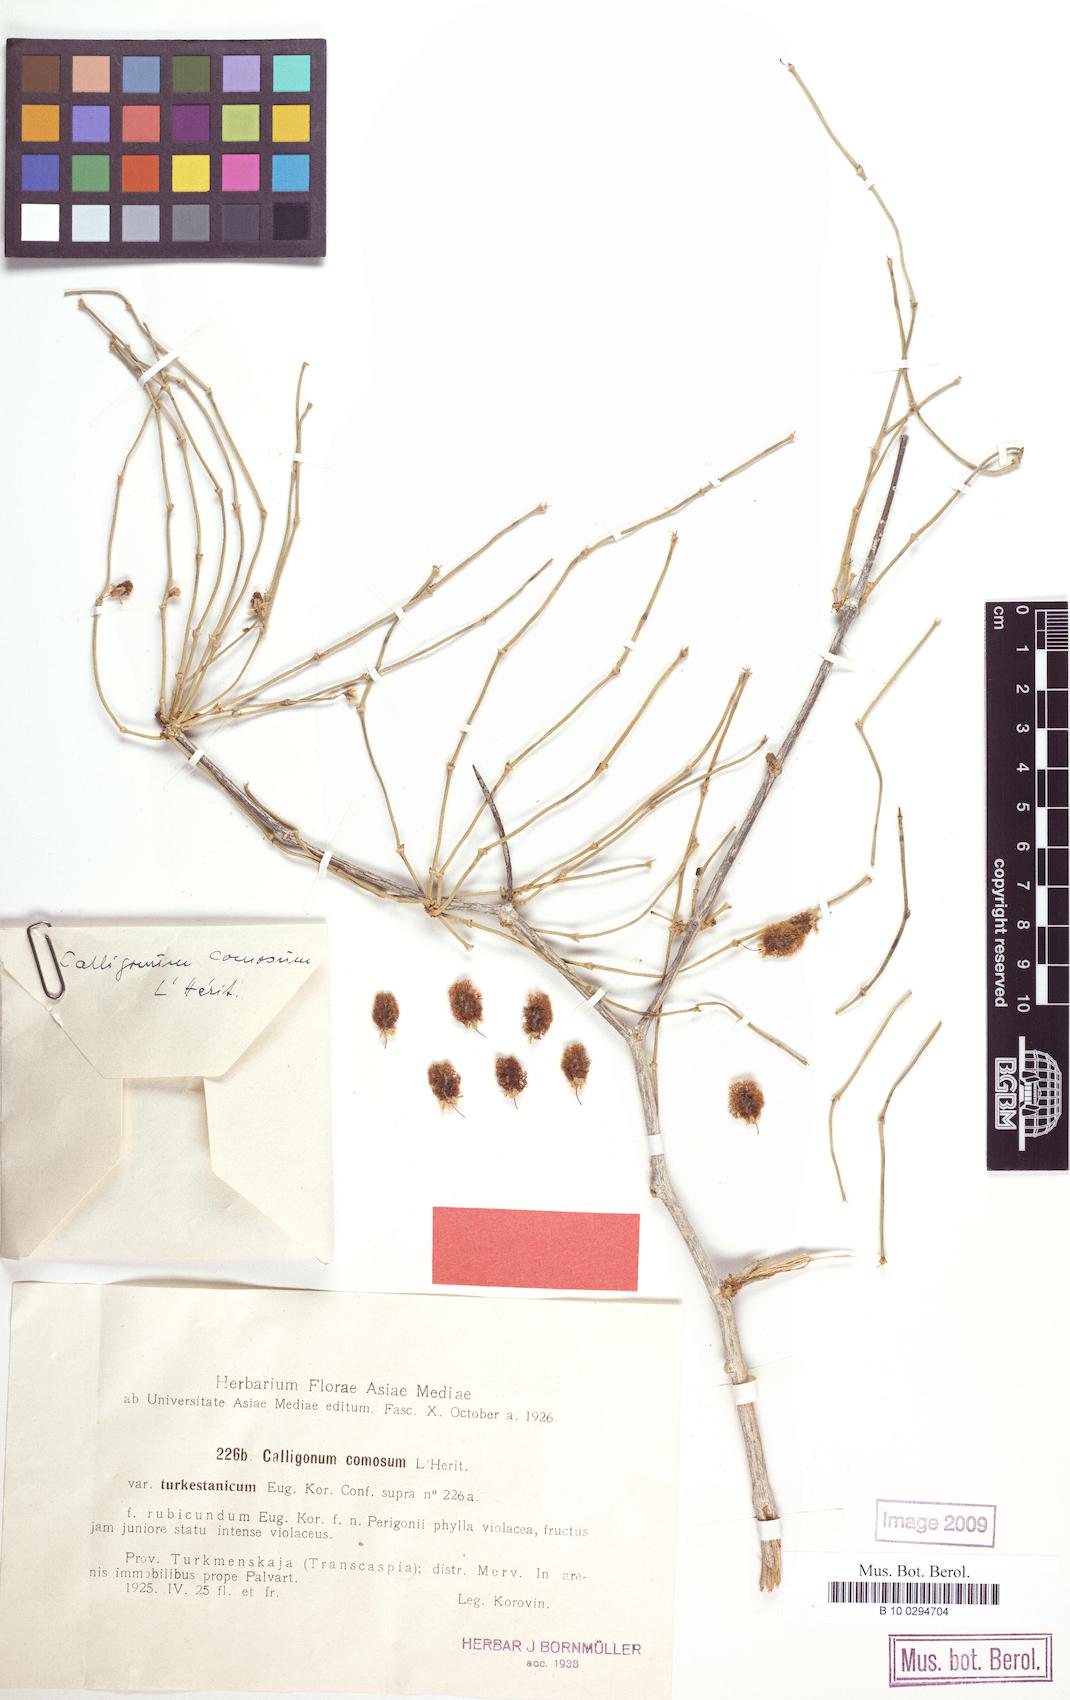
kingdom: Plantae
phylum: Tracheophyta
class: Magnoliopsida
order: Caryophyllales
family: Polygonaceae
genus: Calligonum
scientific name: Calligonum mongolicum
